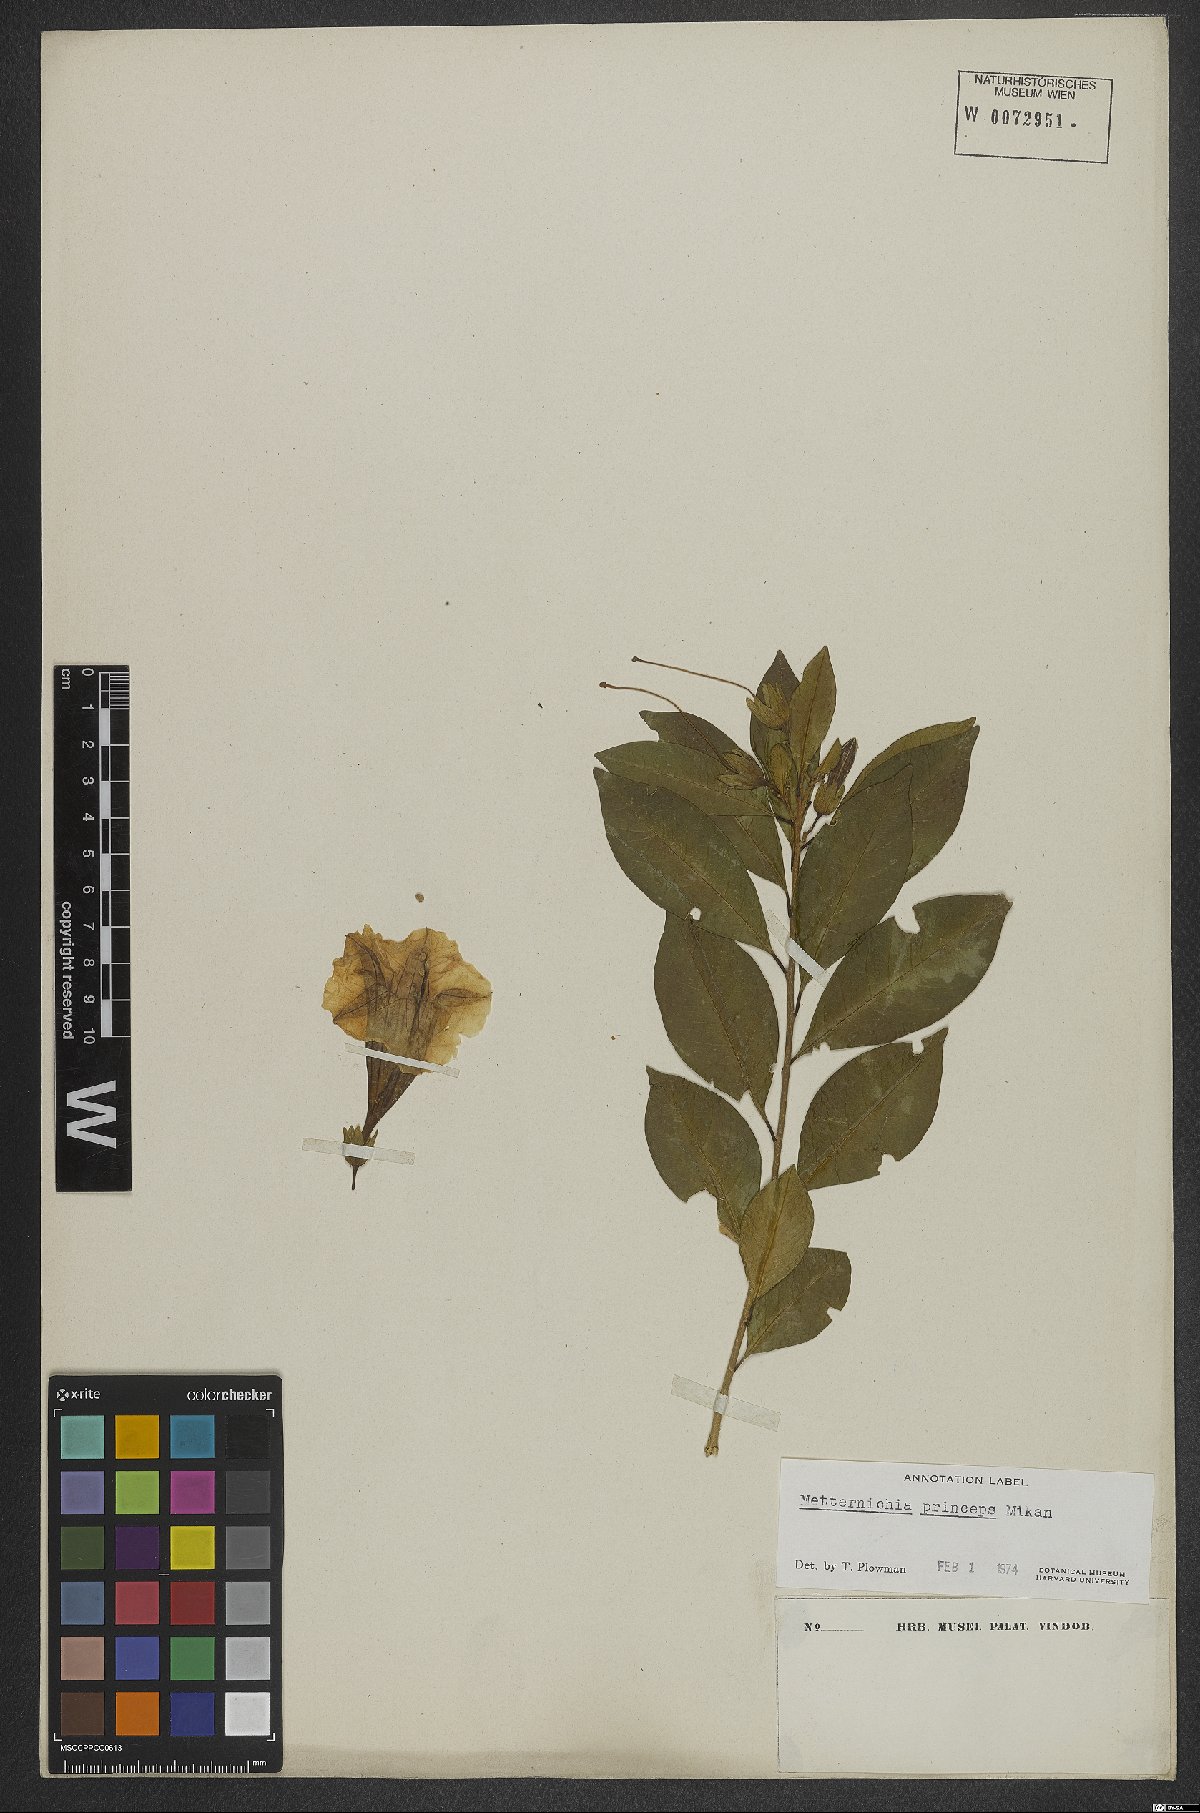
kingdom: Plantae
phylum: Tracheophyta
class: Magnoliopsida
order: Solanales
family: Solanaceae
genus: Metternichia
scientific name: Metternichia principis
